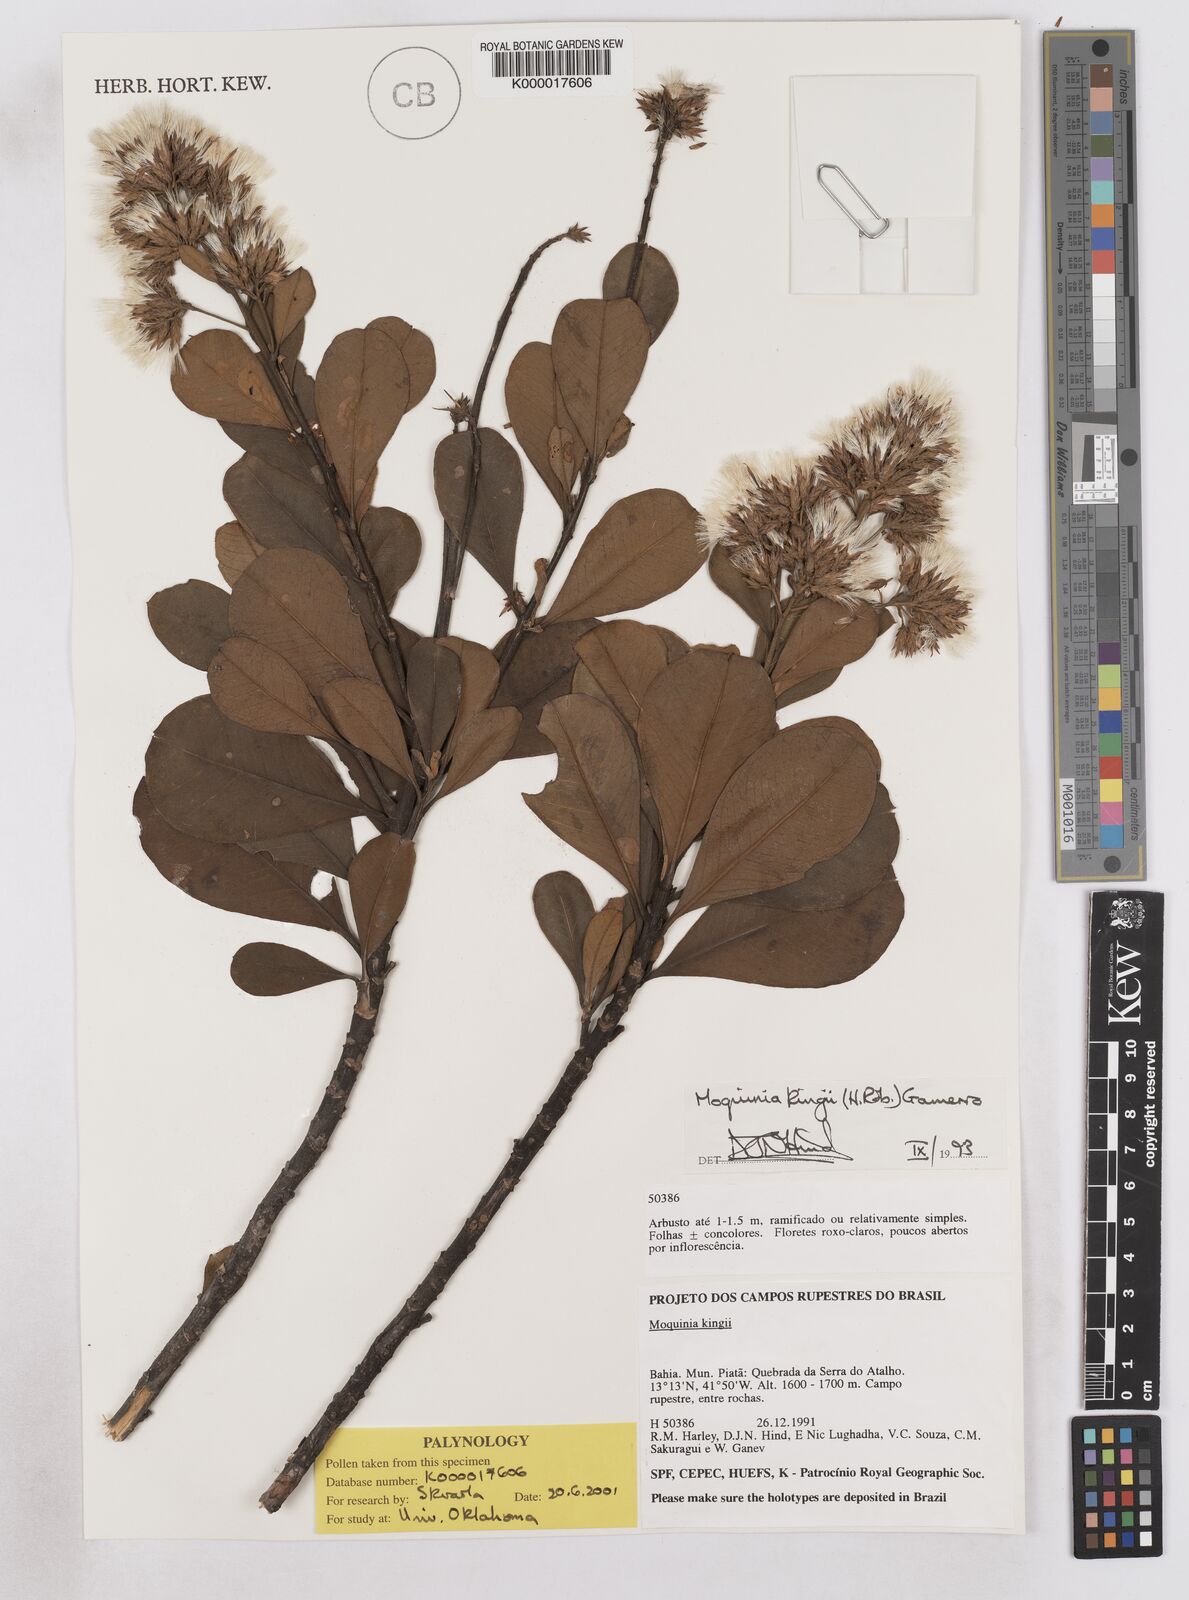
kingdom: Plantae
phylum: Tracheophyta
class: Magnoliopsida
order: Asterales
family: Asteraceae
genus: Pseudostifftia
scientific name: Pseudostifftia kingii
